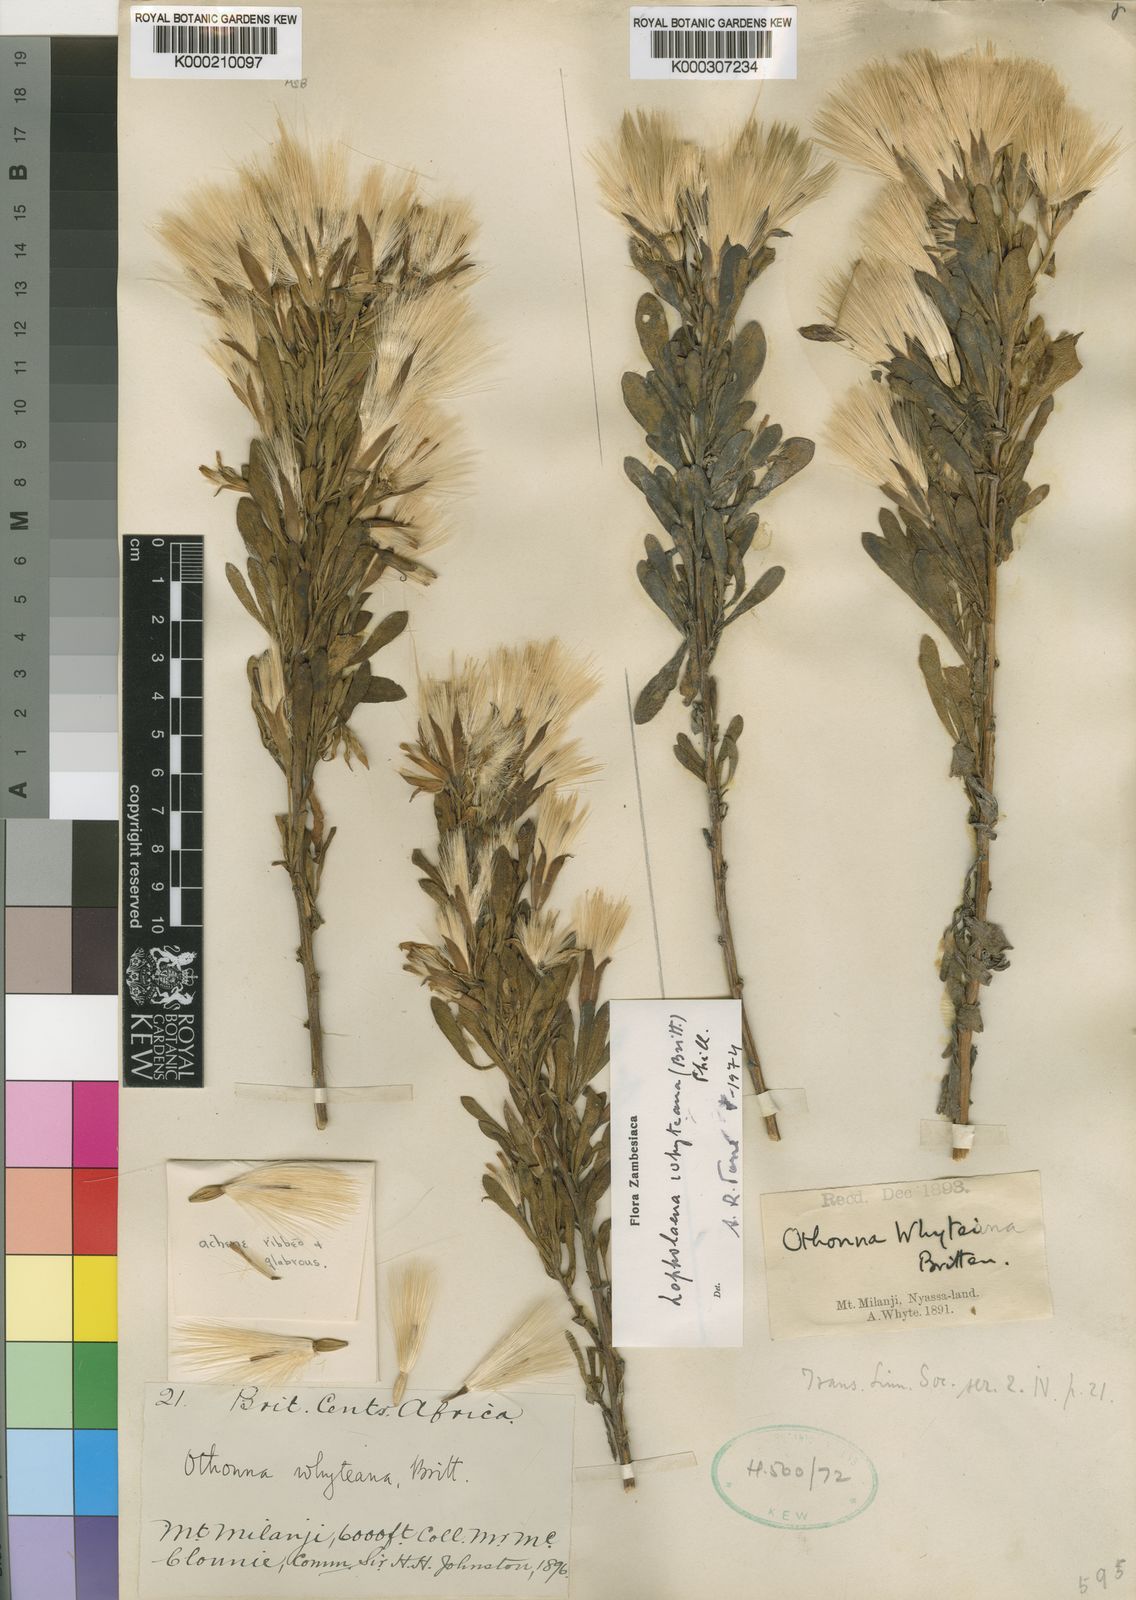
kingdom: Plantae
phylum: Tracheophyta
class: Magnoliopsida
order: Asterales
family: Asteraceae
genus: Lopholaena
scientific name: Lopholaena whyteana
